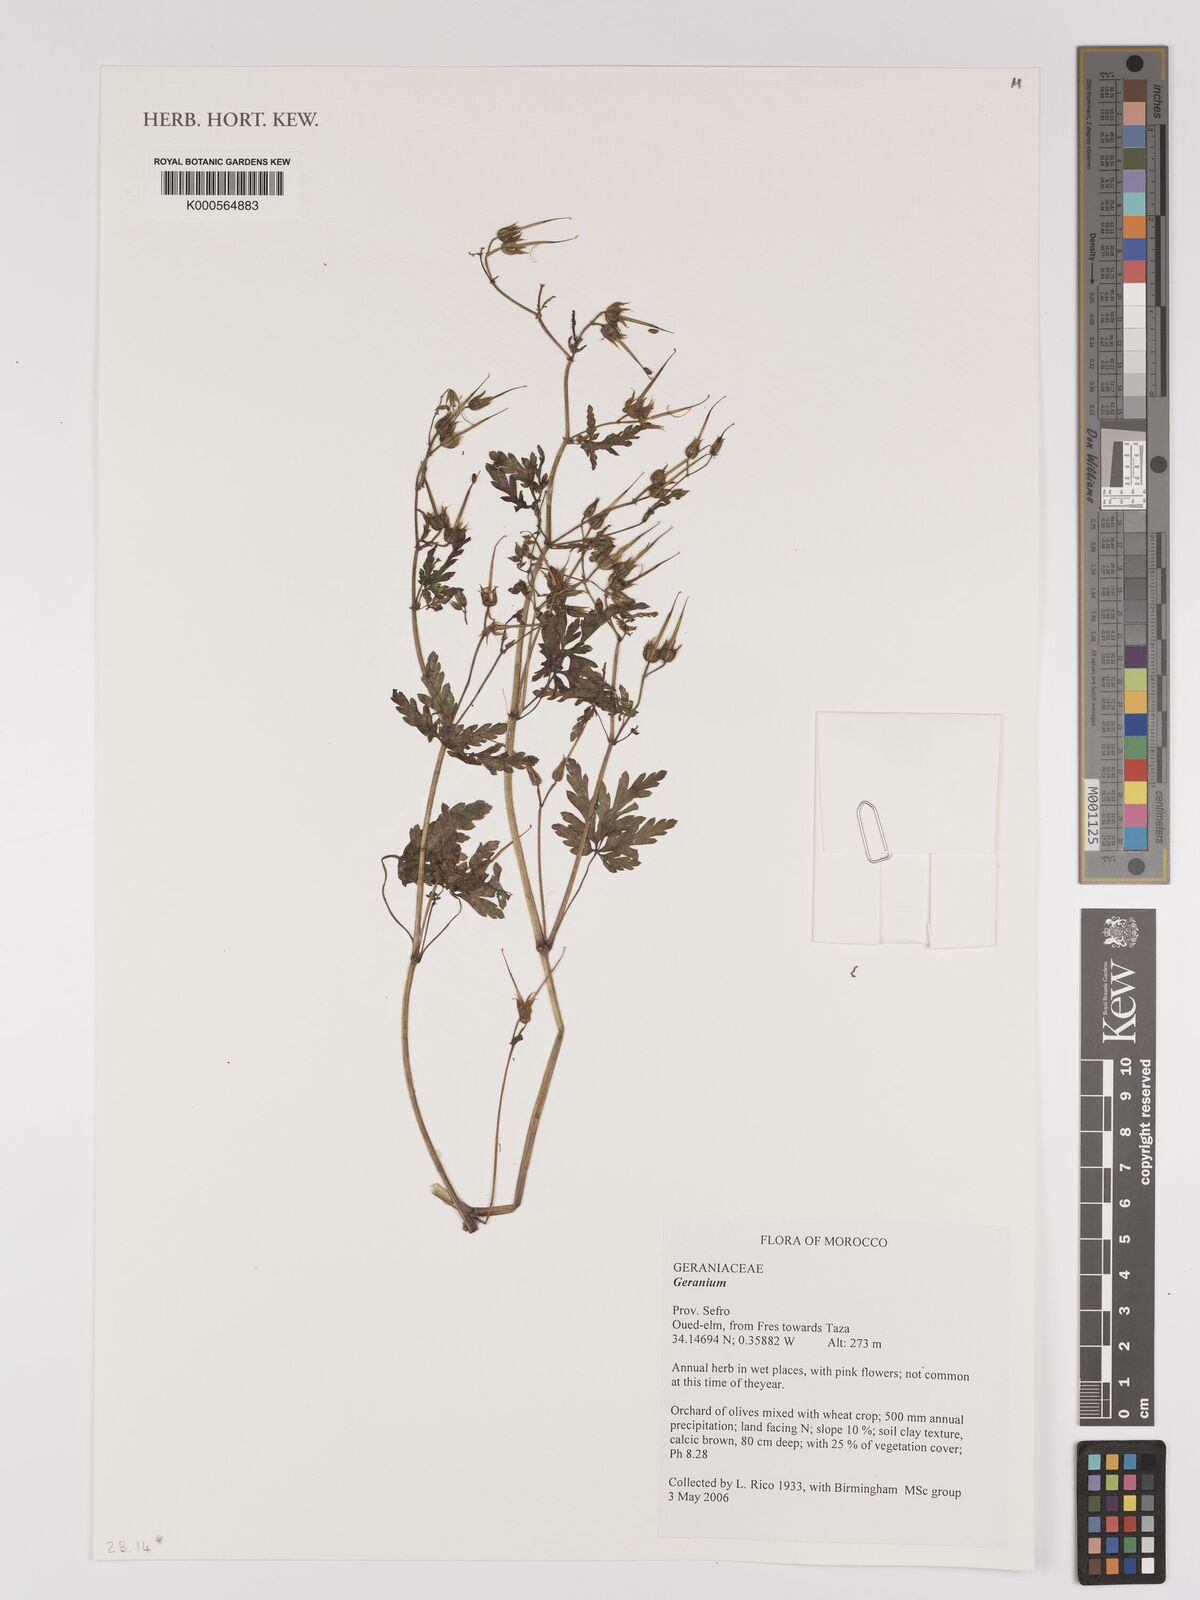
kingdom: Plantae
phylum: Tracheophyta
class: Magnoliopsida
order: Geraniales
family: Geraniaceae
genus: Geranium
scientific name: Geranium
